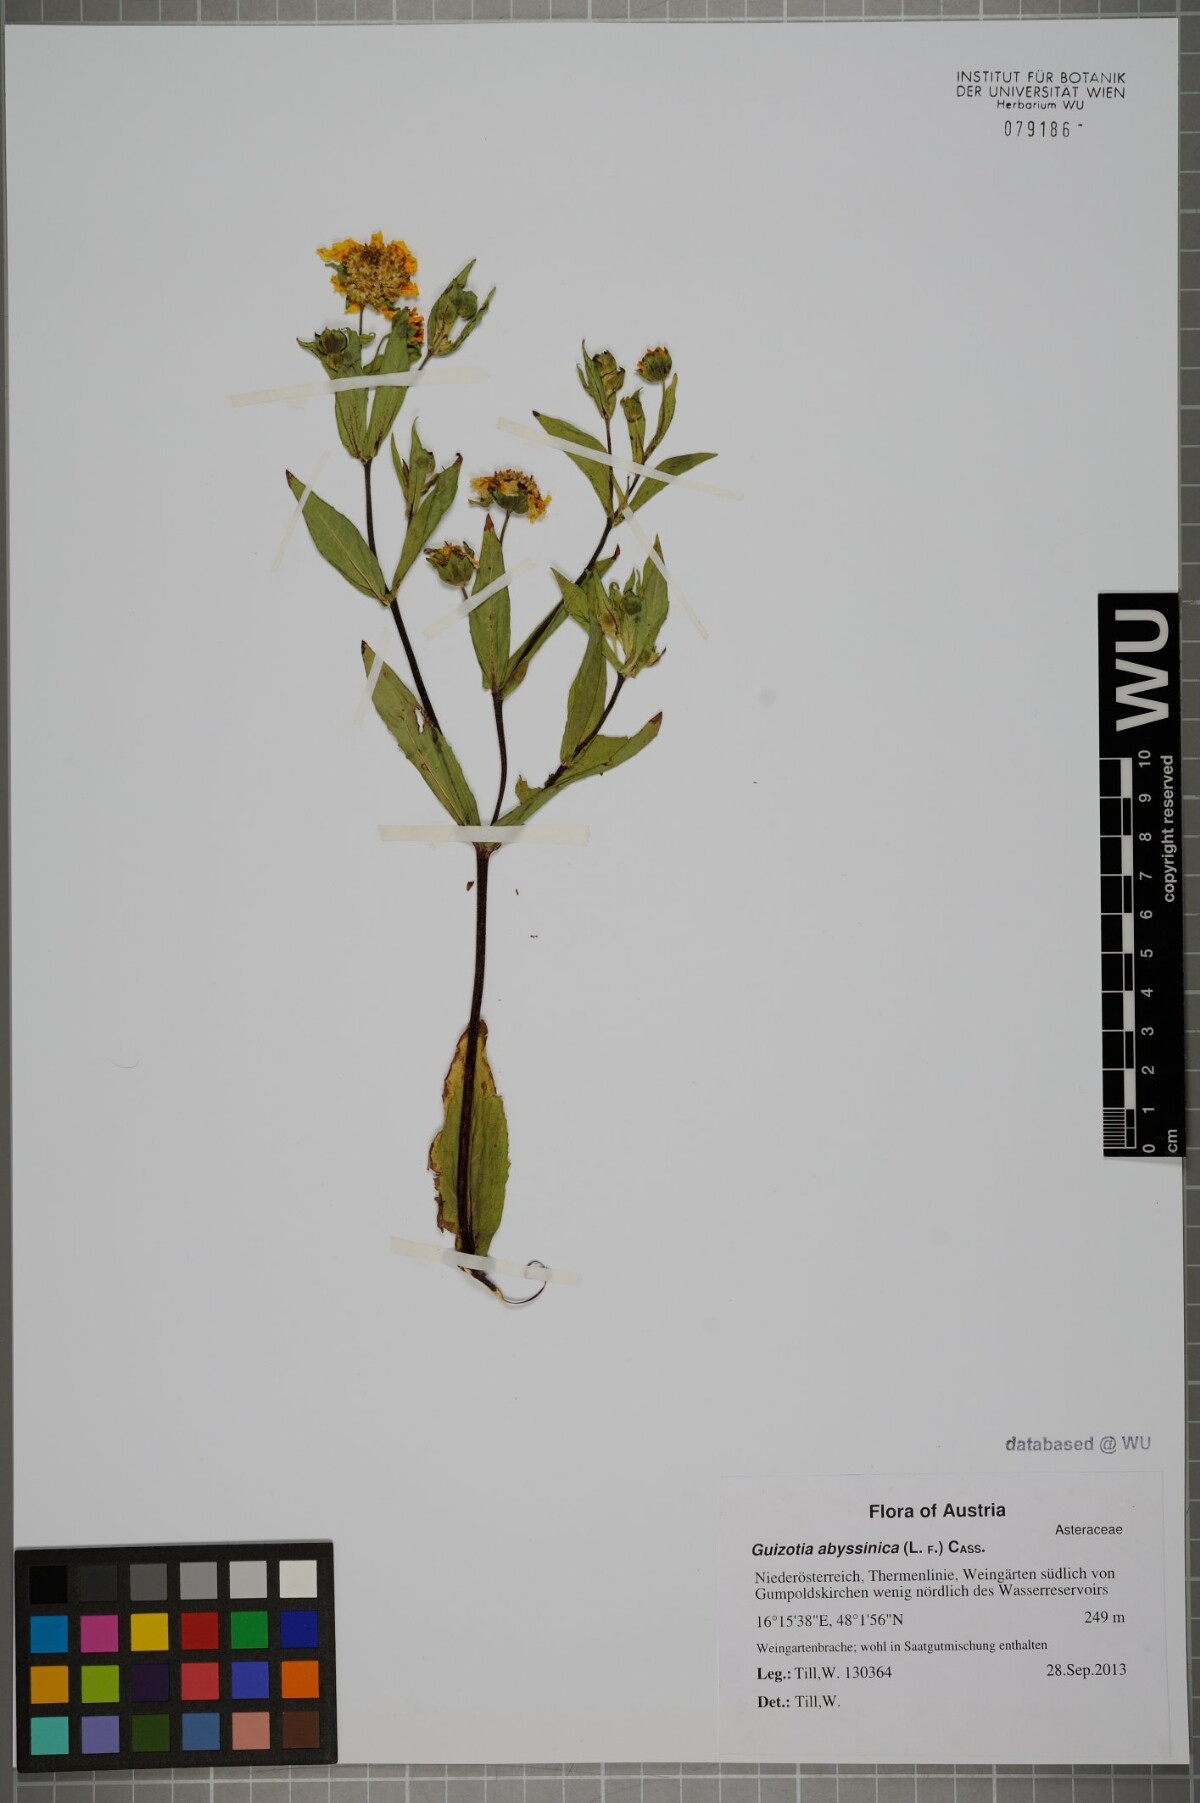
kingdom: Plantae
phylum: Tracheophyta
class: Magnoliopsida
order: Asterales
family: Asteraceae
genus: Guizotia
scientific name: Guizotia abyssinica
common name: Niger
